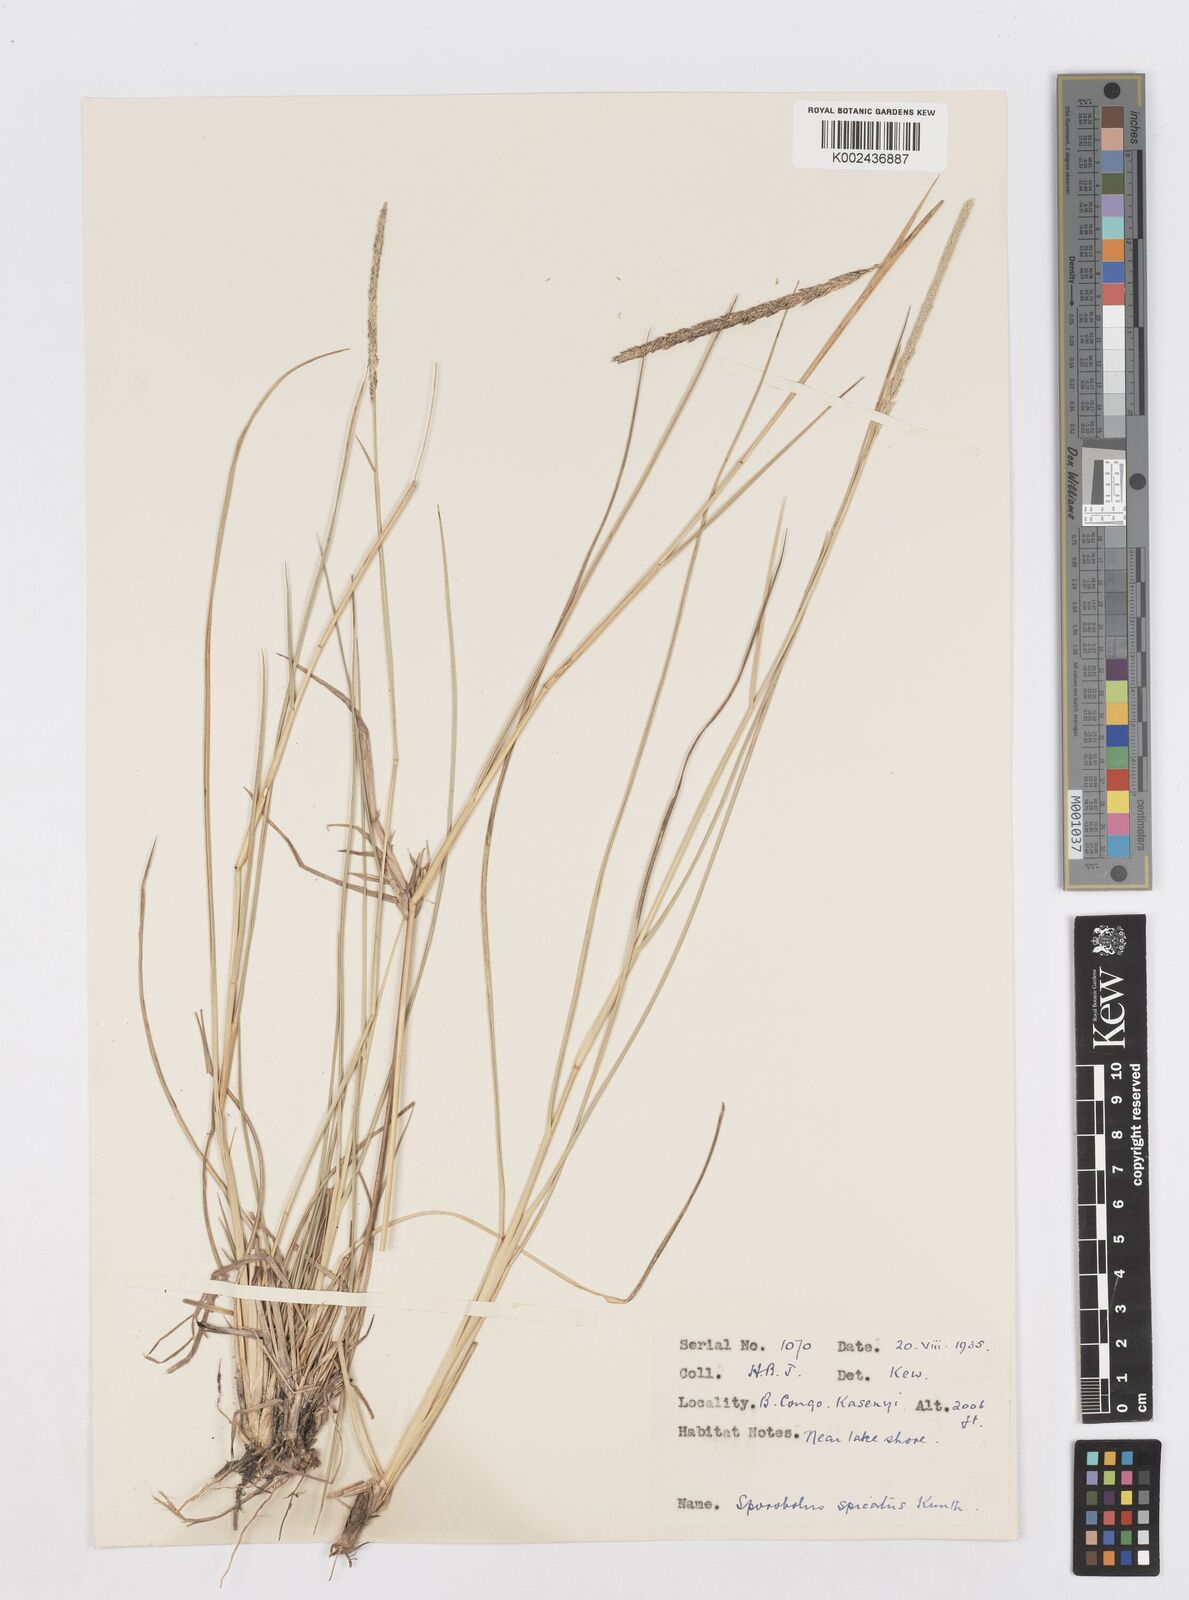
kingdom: Plantae
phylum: Tracheophyta
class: Liliopsida
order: Poales
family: Poaceae
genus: Sporobolus
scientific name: Sporobolus spicatus
